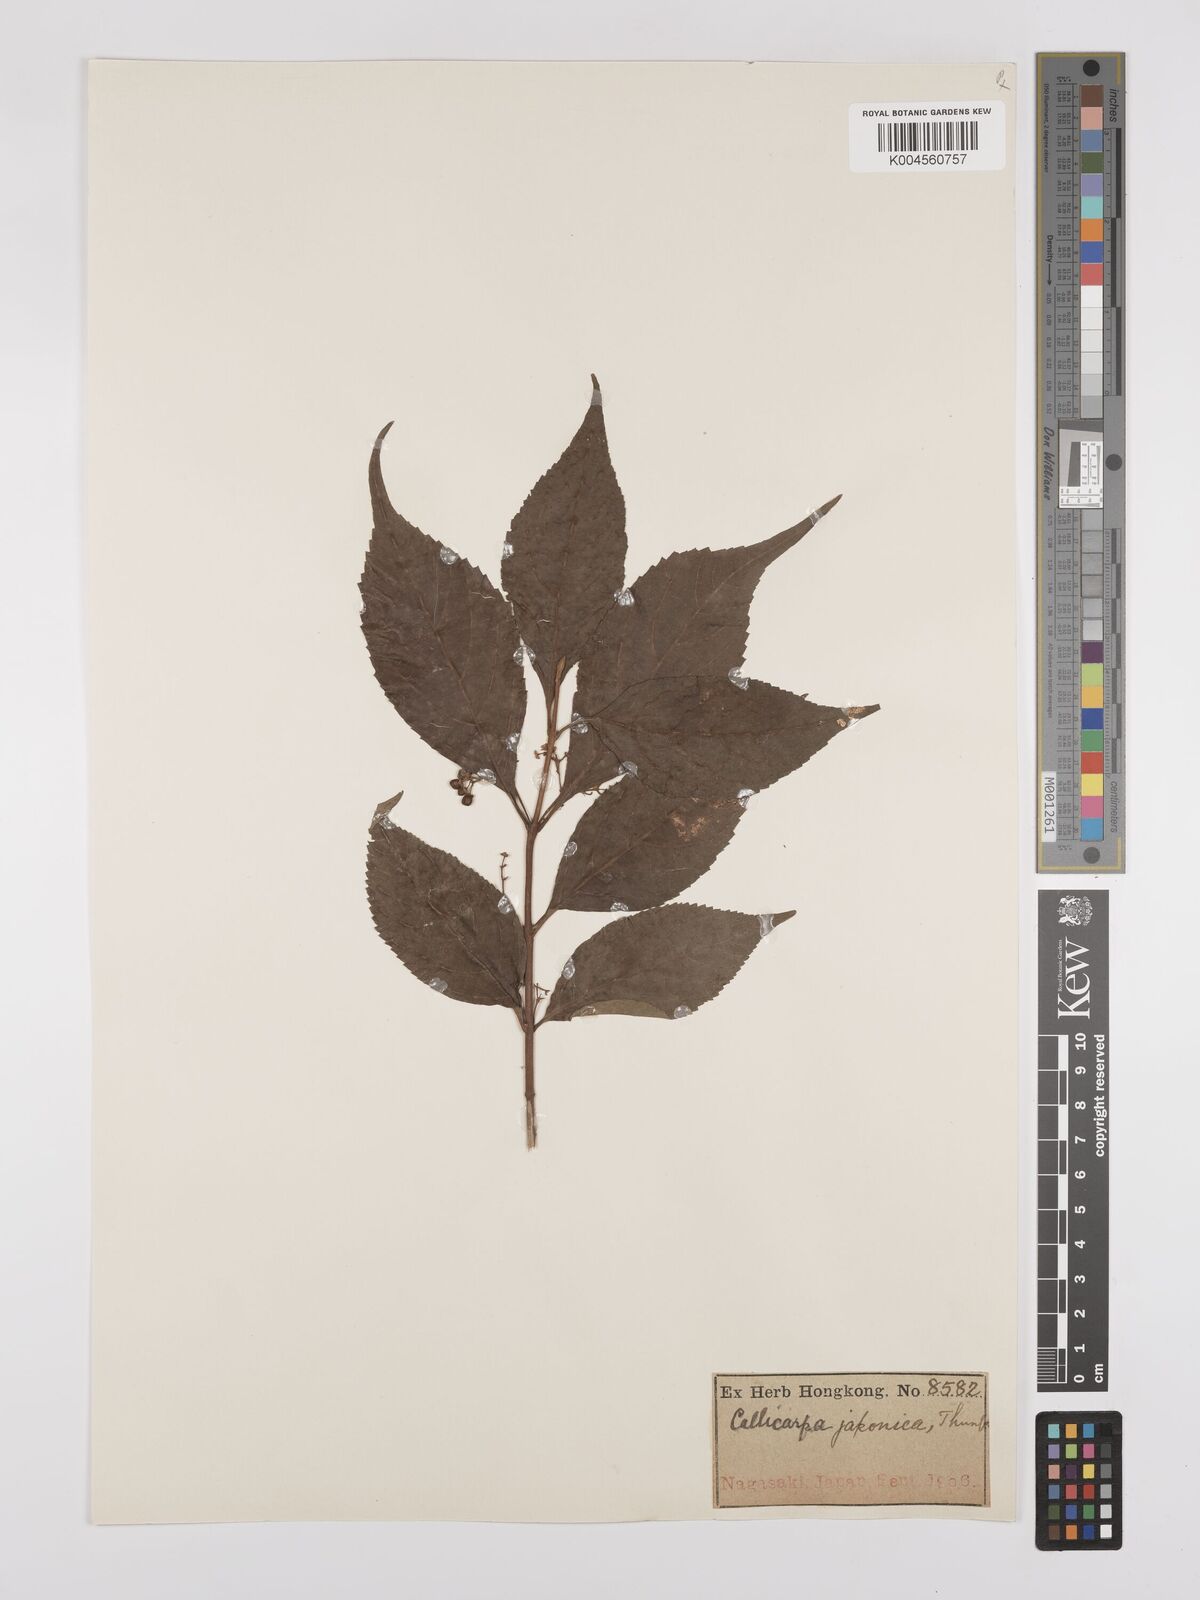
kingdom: Plantae
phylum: Tracheophyta
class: Magnoliopsida
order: Lamiales
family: Lamiaceae
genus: Callicarpa
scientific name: Callicarpa japonica
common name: Japanese beauty-berry
